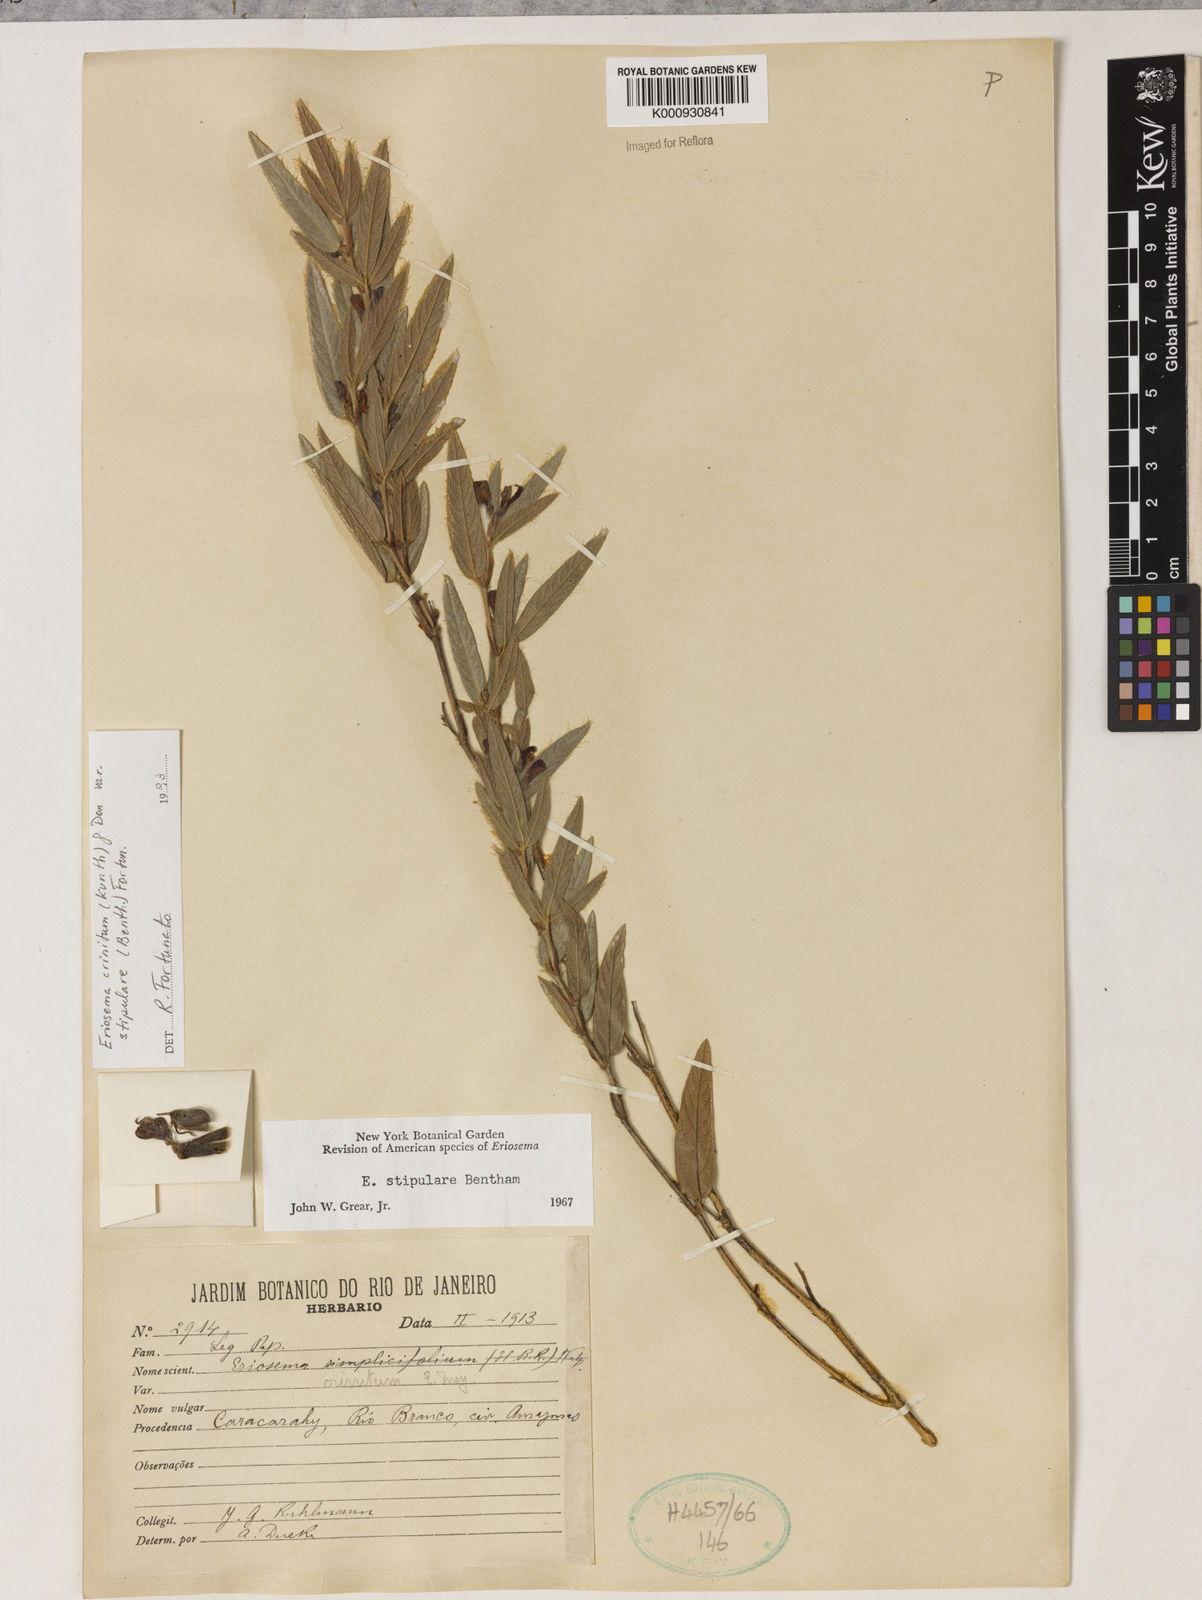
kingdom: Plantae
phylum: Tracheophyta
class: Magnoliopsida
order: Fabales
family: Fabaceae
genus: Eriosema
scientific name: Eriosema crinitum
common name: Sand pea
